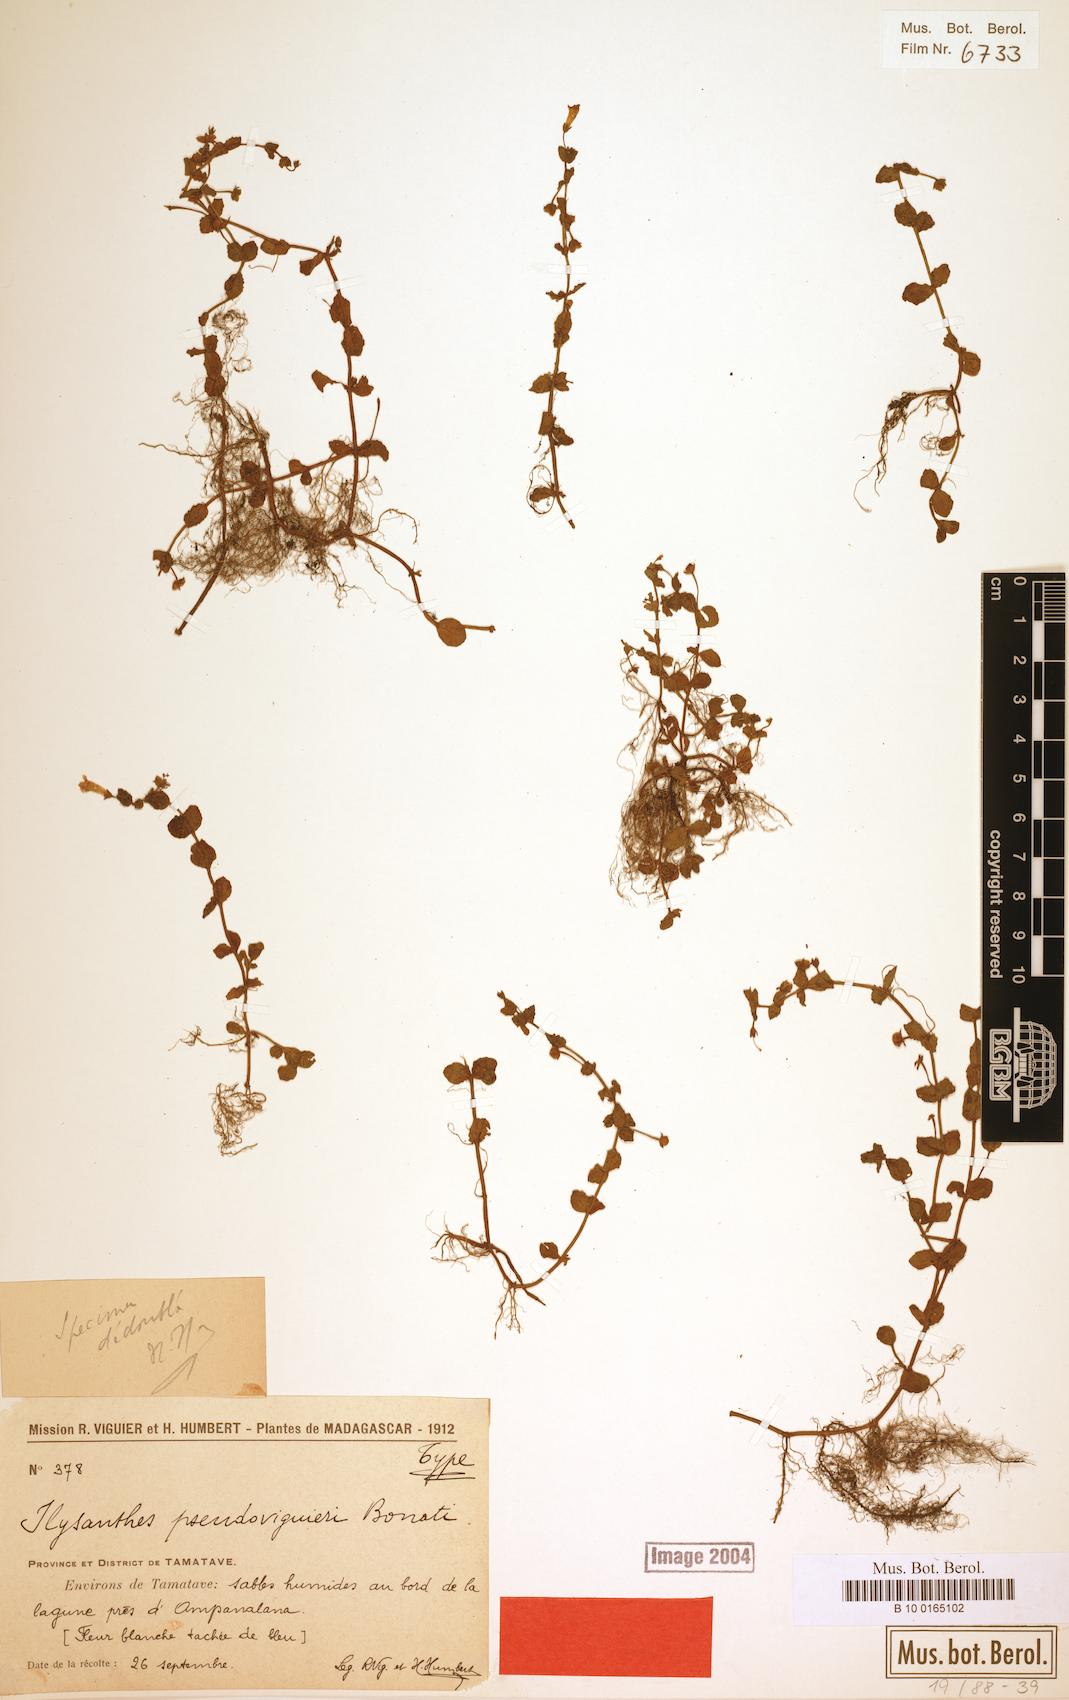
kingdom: Plantae
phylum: Tracheophyta
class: Magnoliopsida
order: Lamiales
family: Linderniaceae
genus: Lindernia
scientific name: Lindernia viguieri
